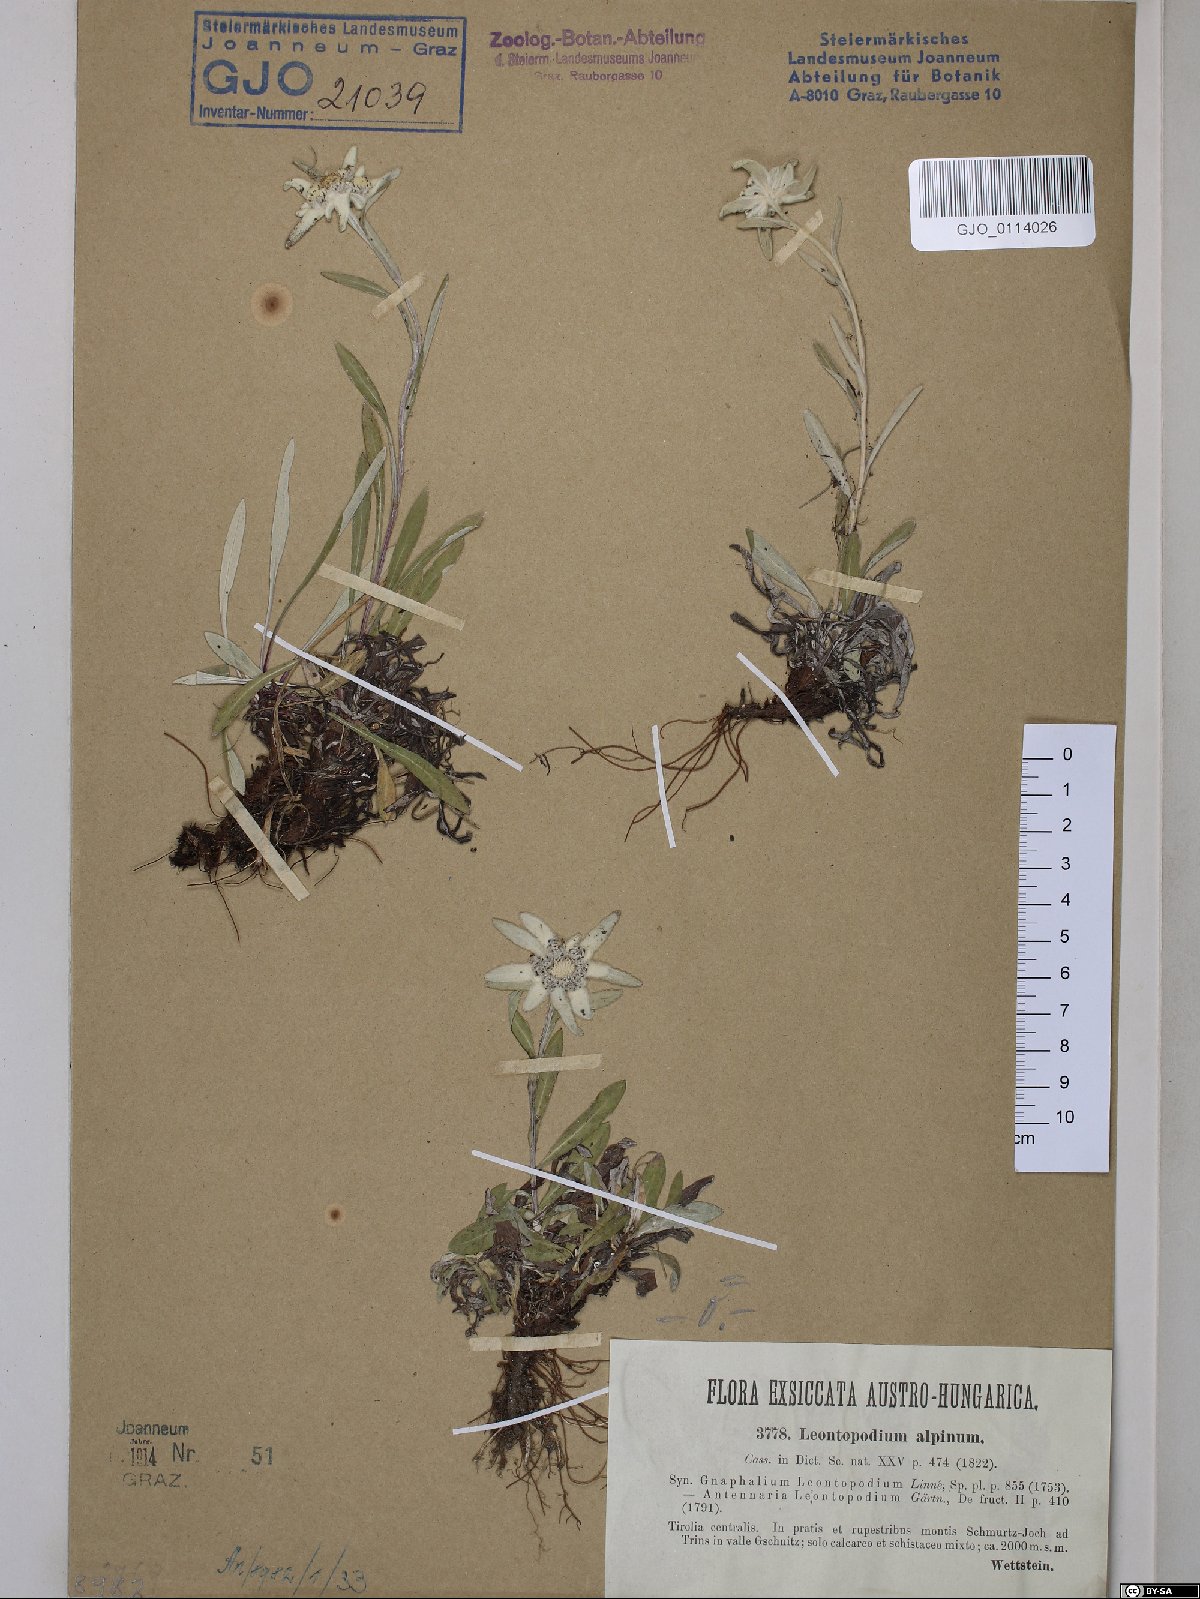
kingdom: Plantae
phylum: Tracheophyta
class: Magnoliopsida
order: Asterales
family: Asteraceae
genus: Leontopodium
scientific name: Leontopodium nivale
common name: Edelweiss
